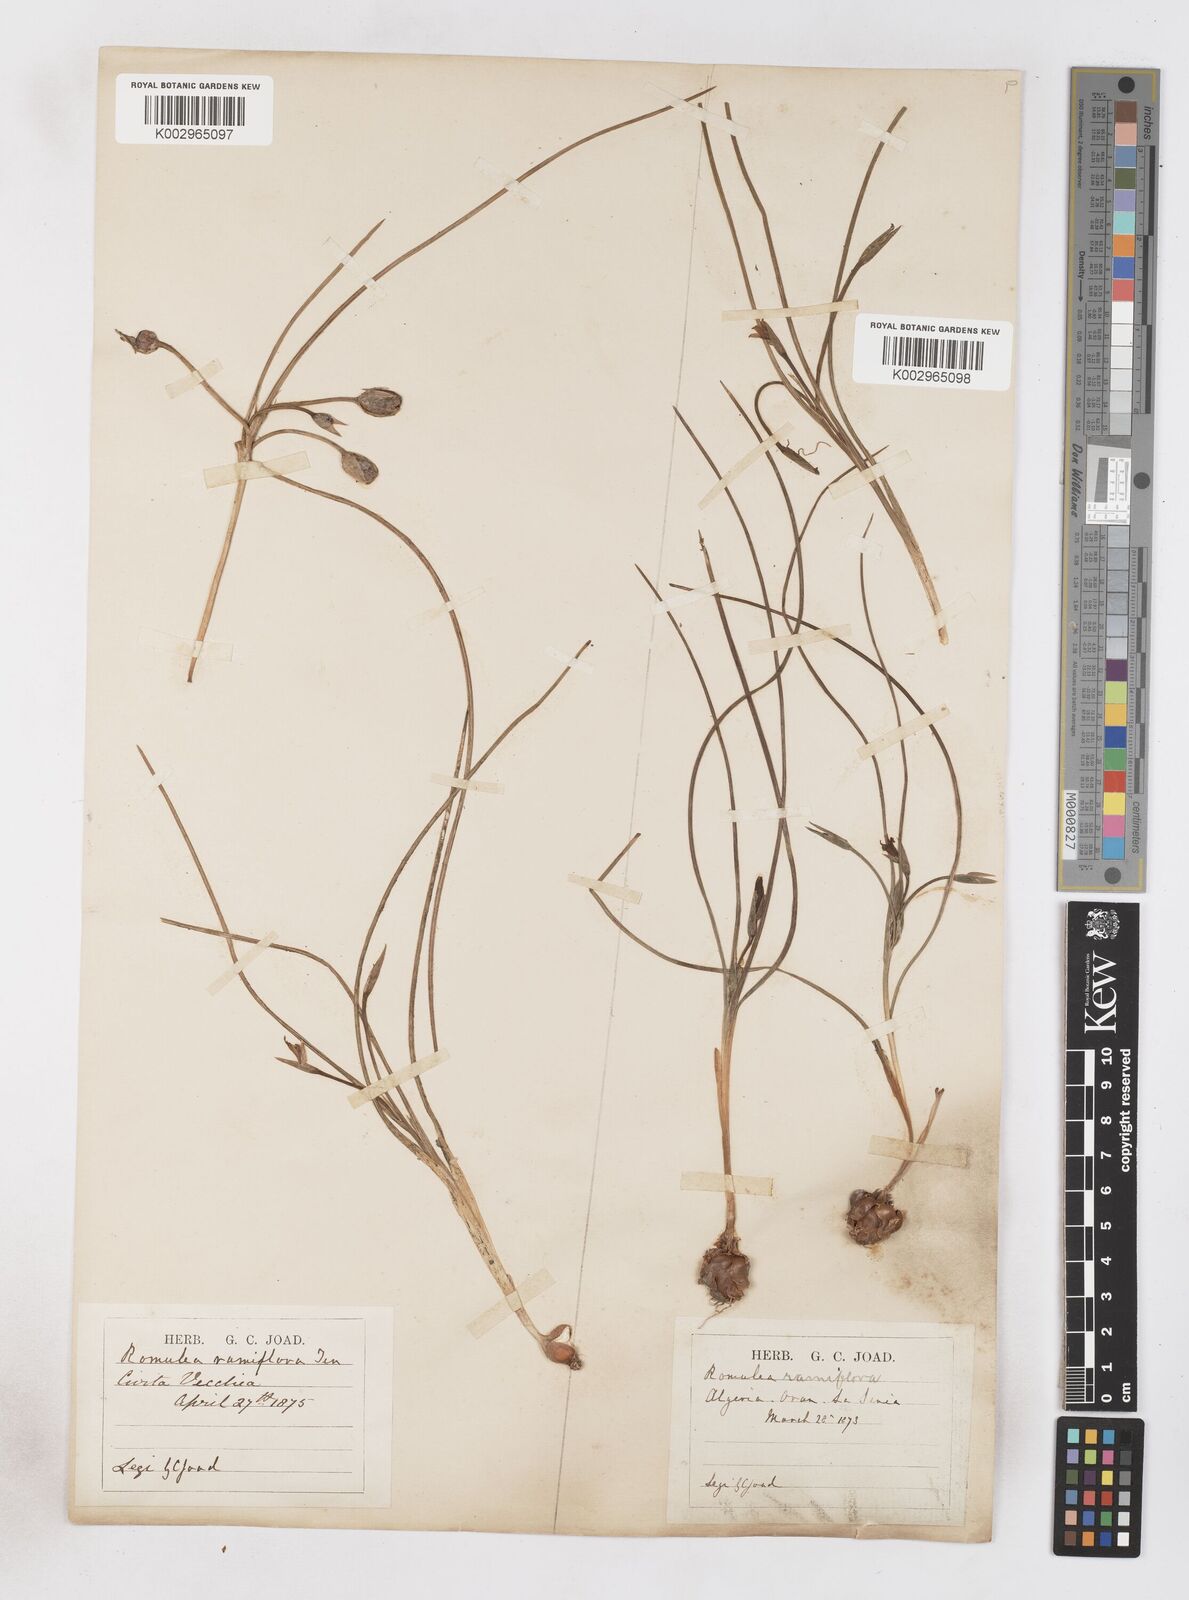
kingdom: Plantae
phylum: Tracheophyta
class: Liliopsida
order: Asparagales
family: Iridaceae
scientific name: Iridaceae
